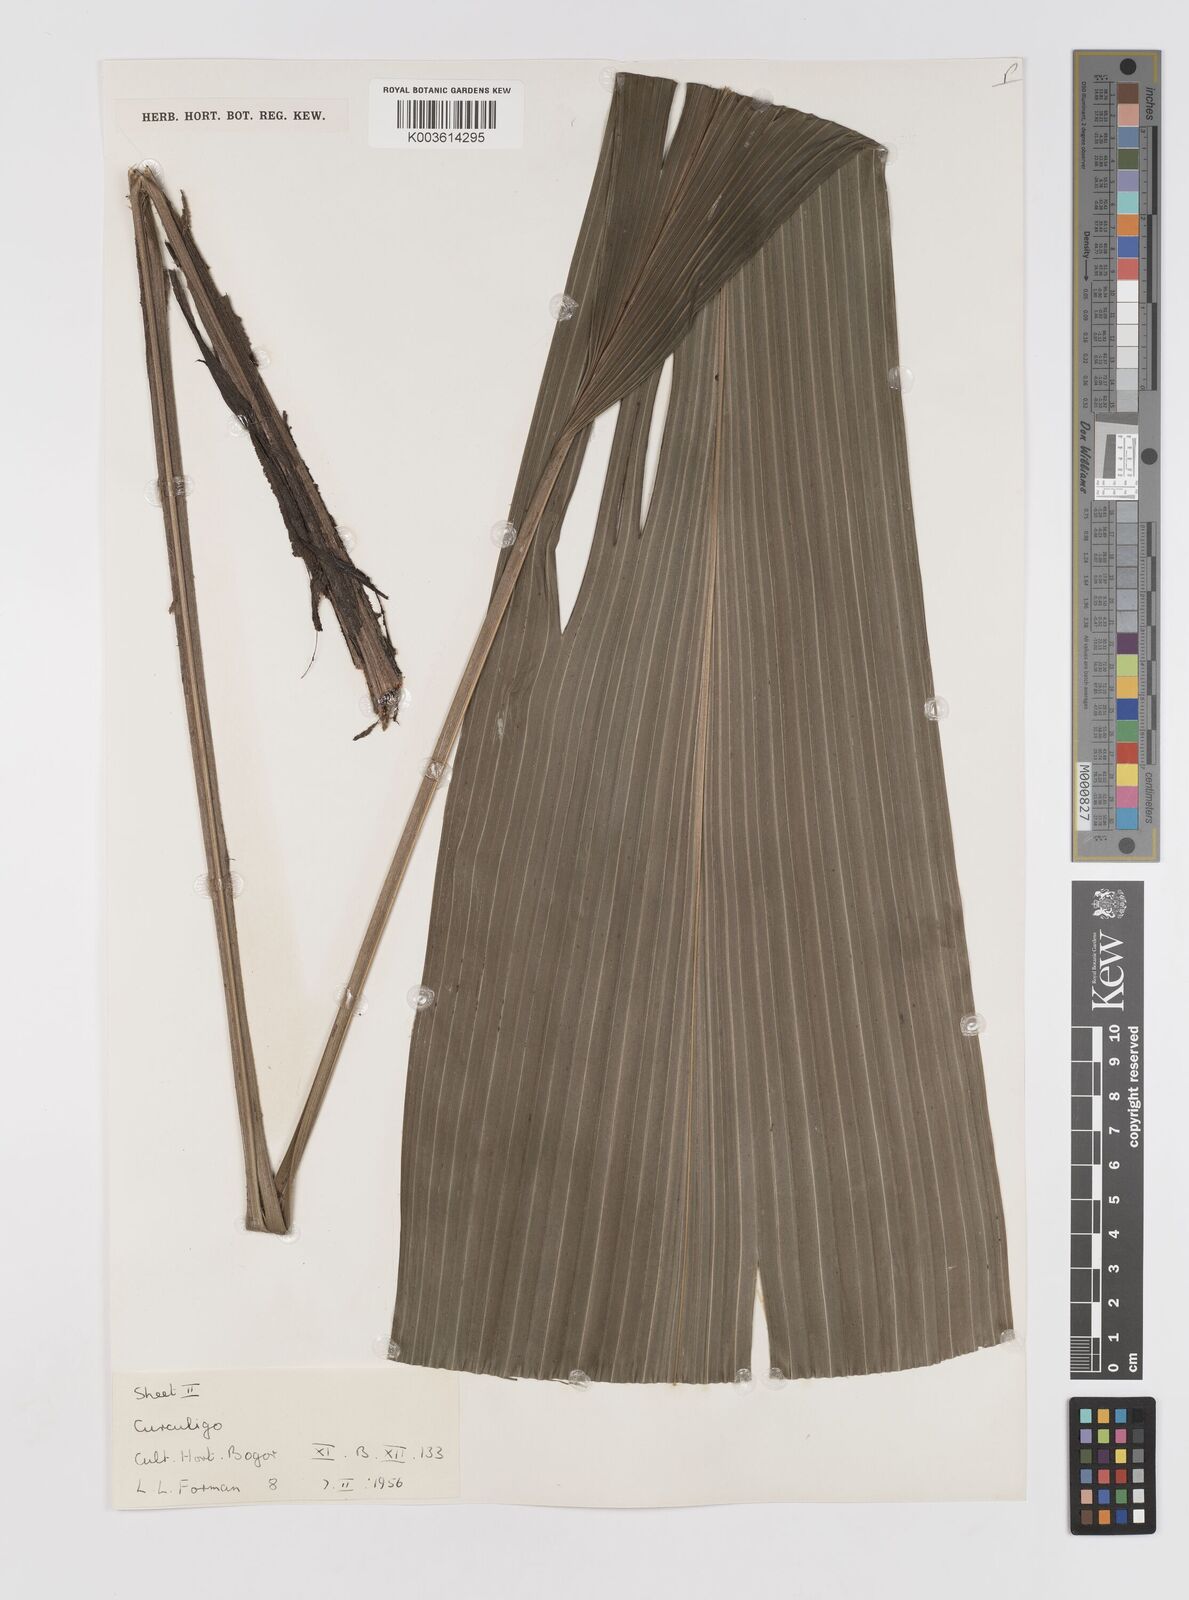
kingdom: Plantae
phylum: Tracheophyta
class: Liliopsida
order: Asparagales
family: Hypoxidaceae
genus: Curculigo
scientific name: Curculigo
